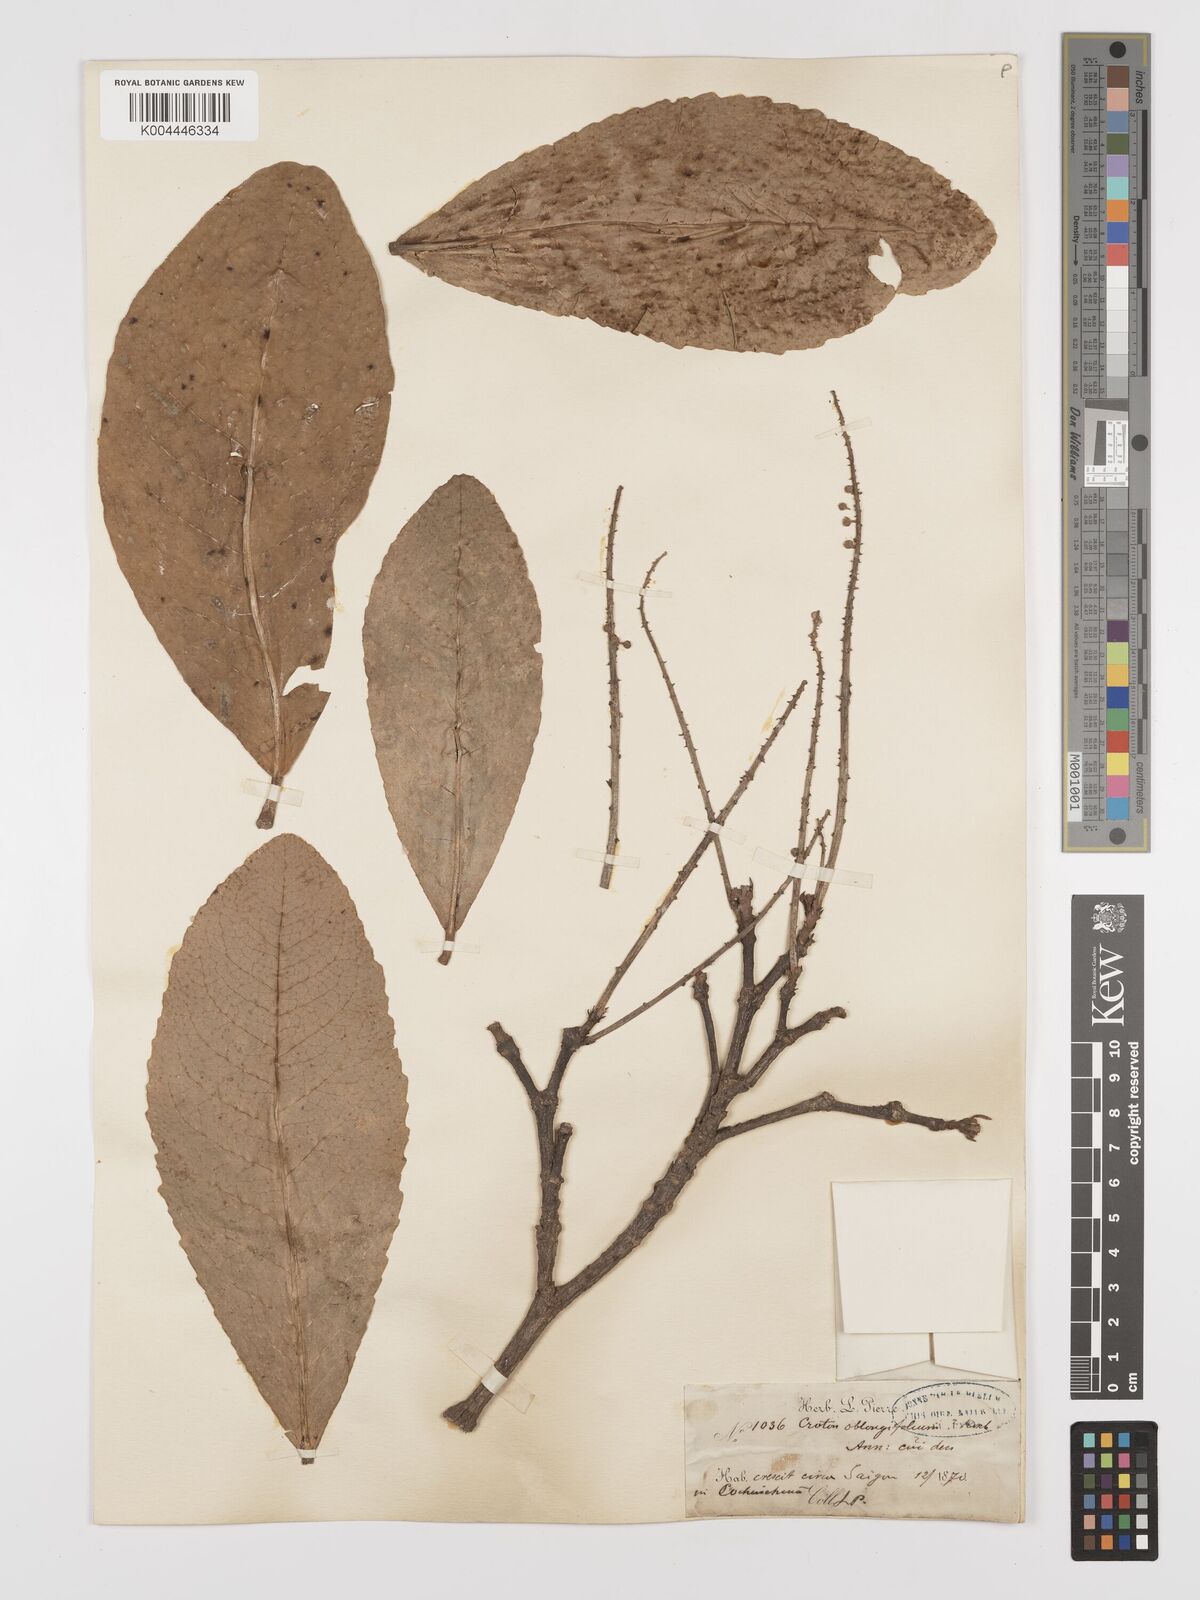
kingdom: Plantae
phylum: Tracheophyta
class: Magnoliopsida
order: Malpighiales
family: Euphorbiaceae
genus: Baliospermum
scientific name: Baliospermum solanifolium
